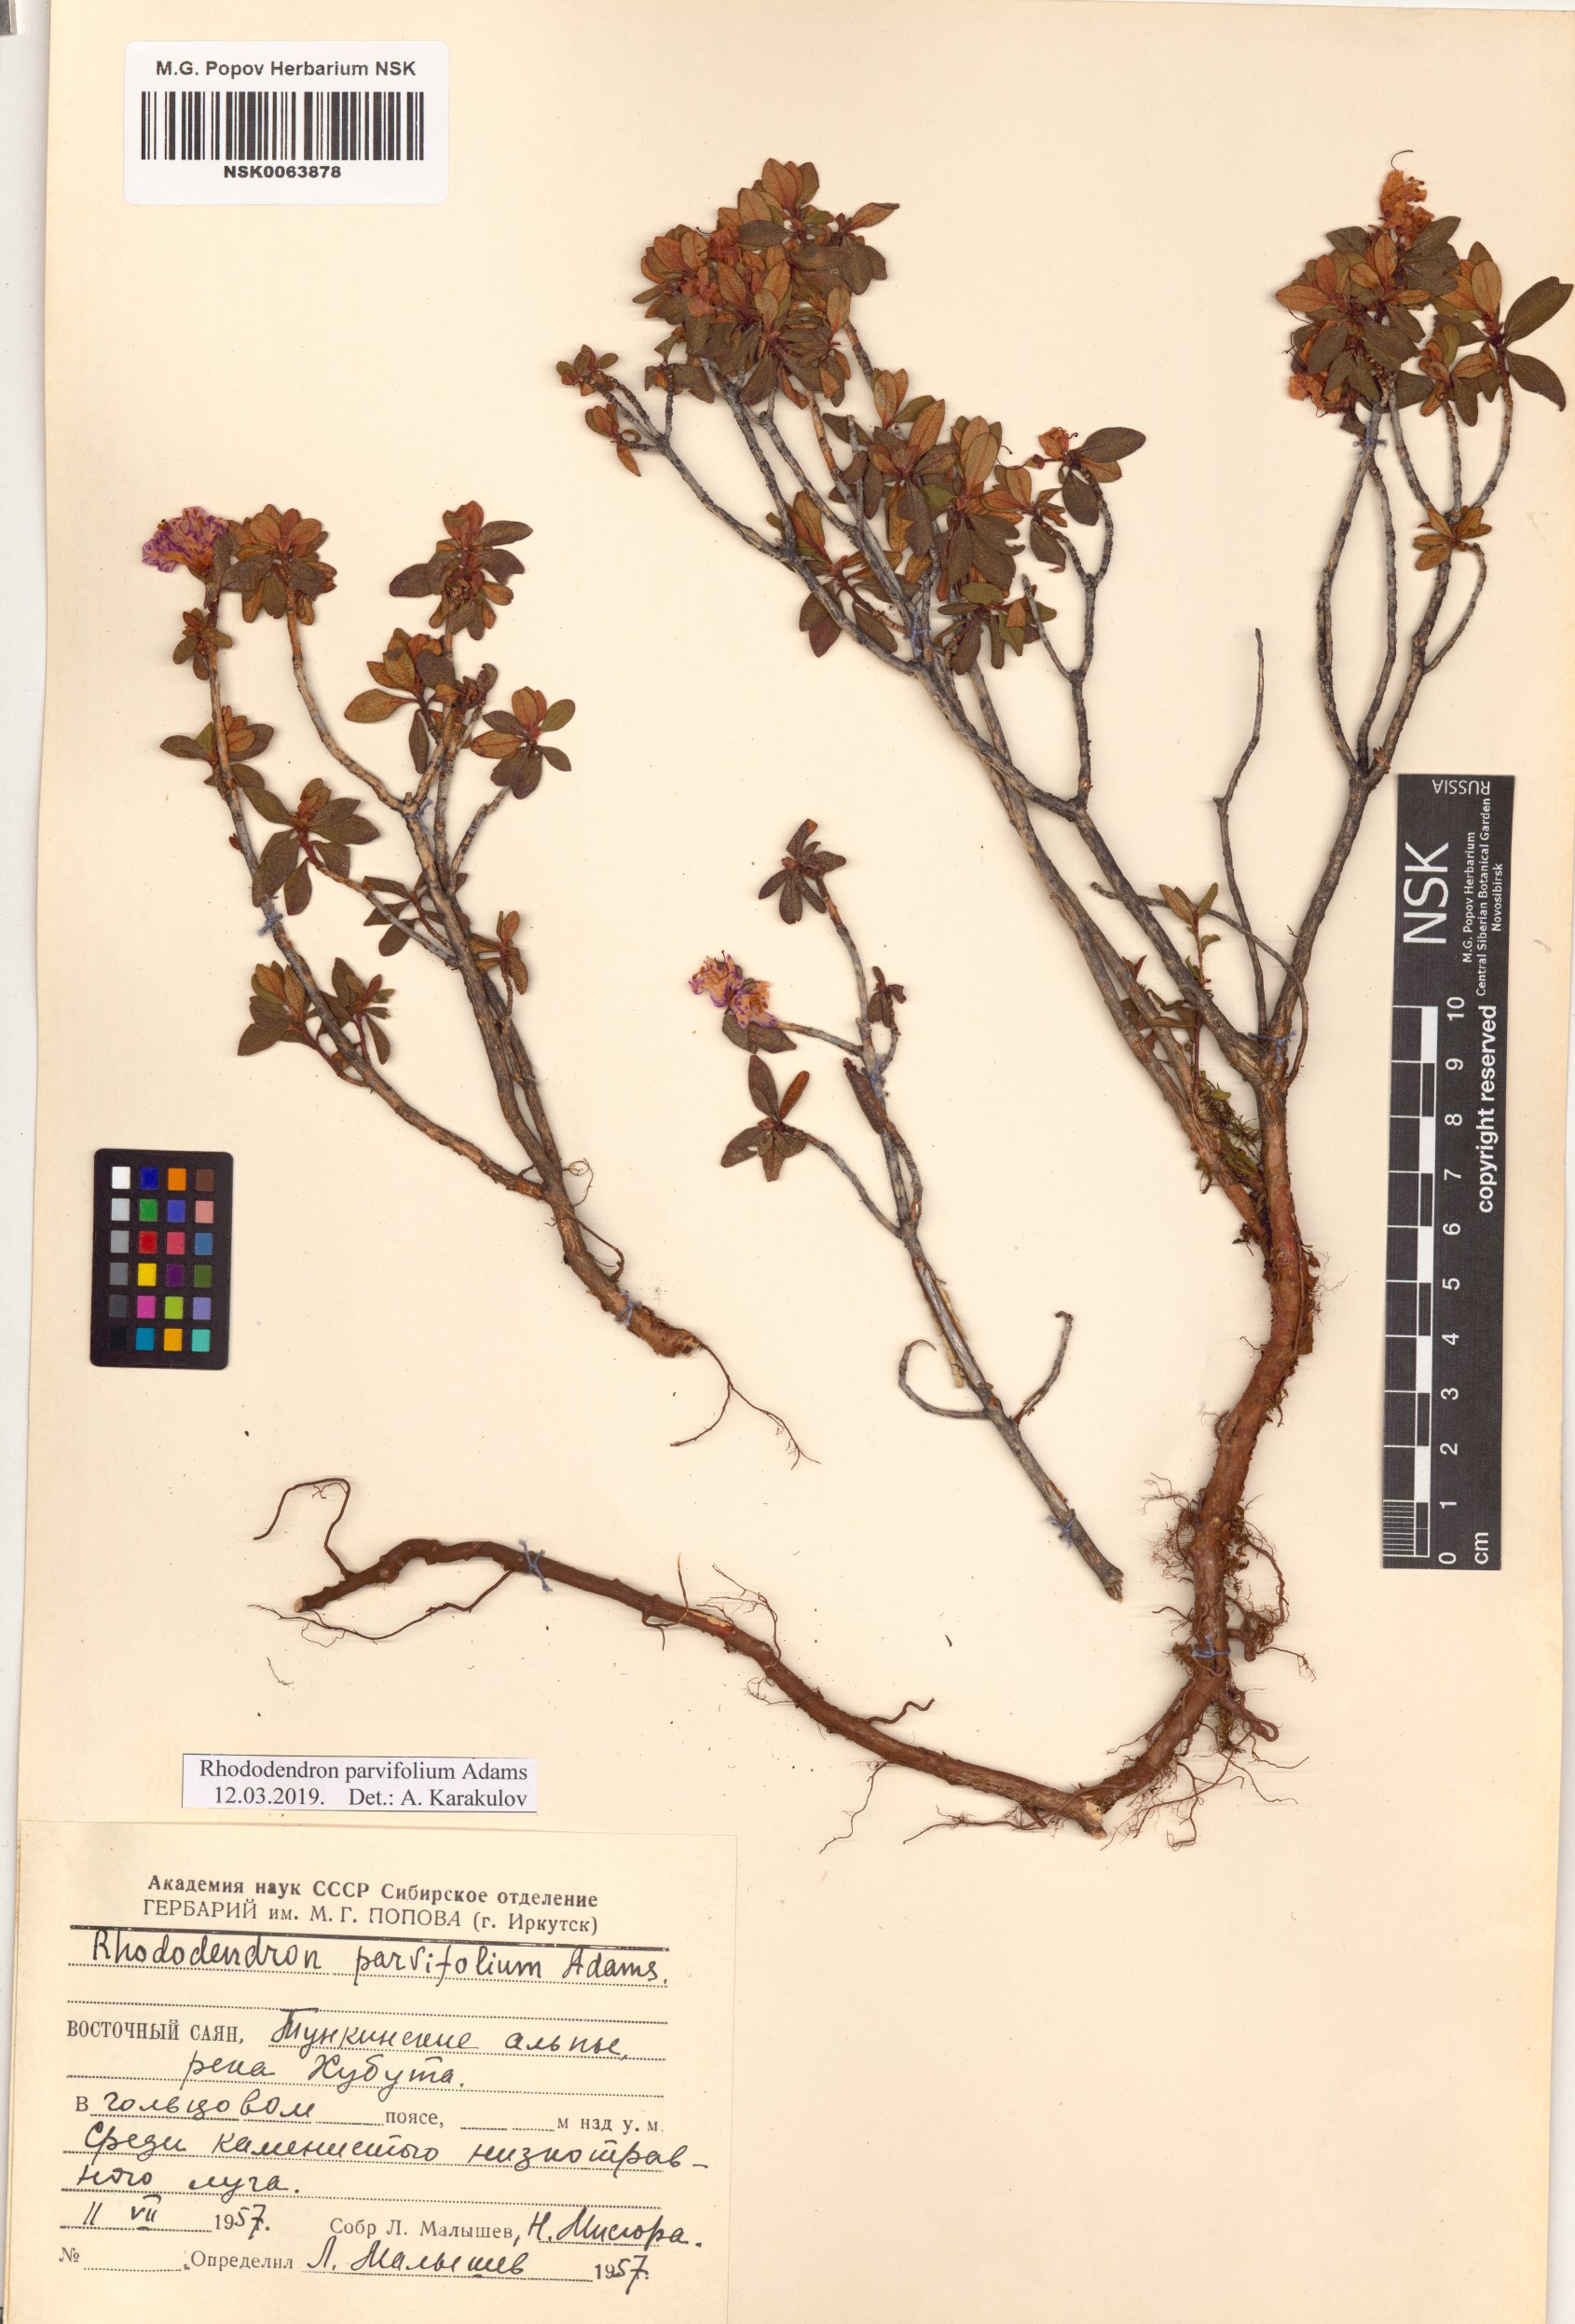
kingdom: Plantae
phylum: Tracheophyta
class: Magnoliopsida
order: Ericales
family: Ericaceae
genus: Rhododendron
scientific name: Rhododendron parvifolium
